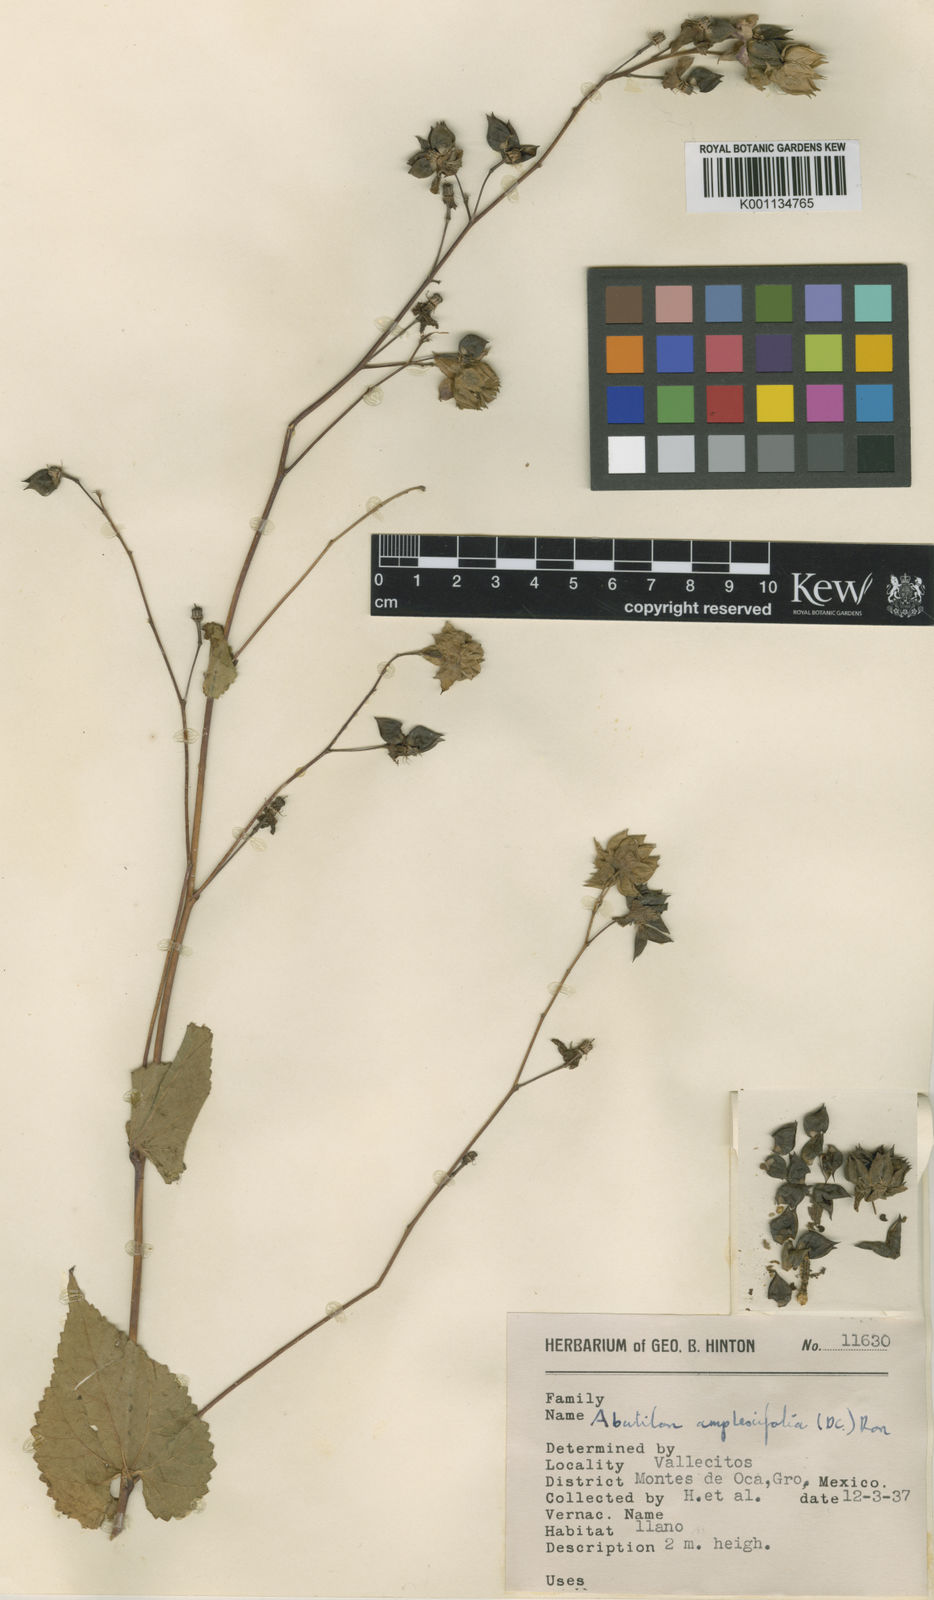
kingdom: Plantae
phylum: Tracheophyta
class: Magnoliopsida
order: Malvales
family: Malvaceae
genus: Hochreutinera
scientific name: Hochreutinera amplexifolia
